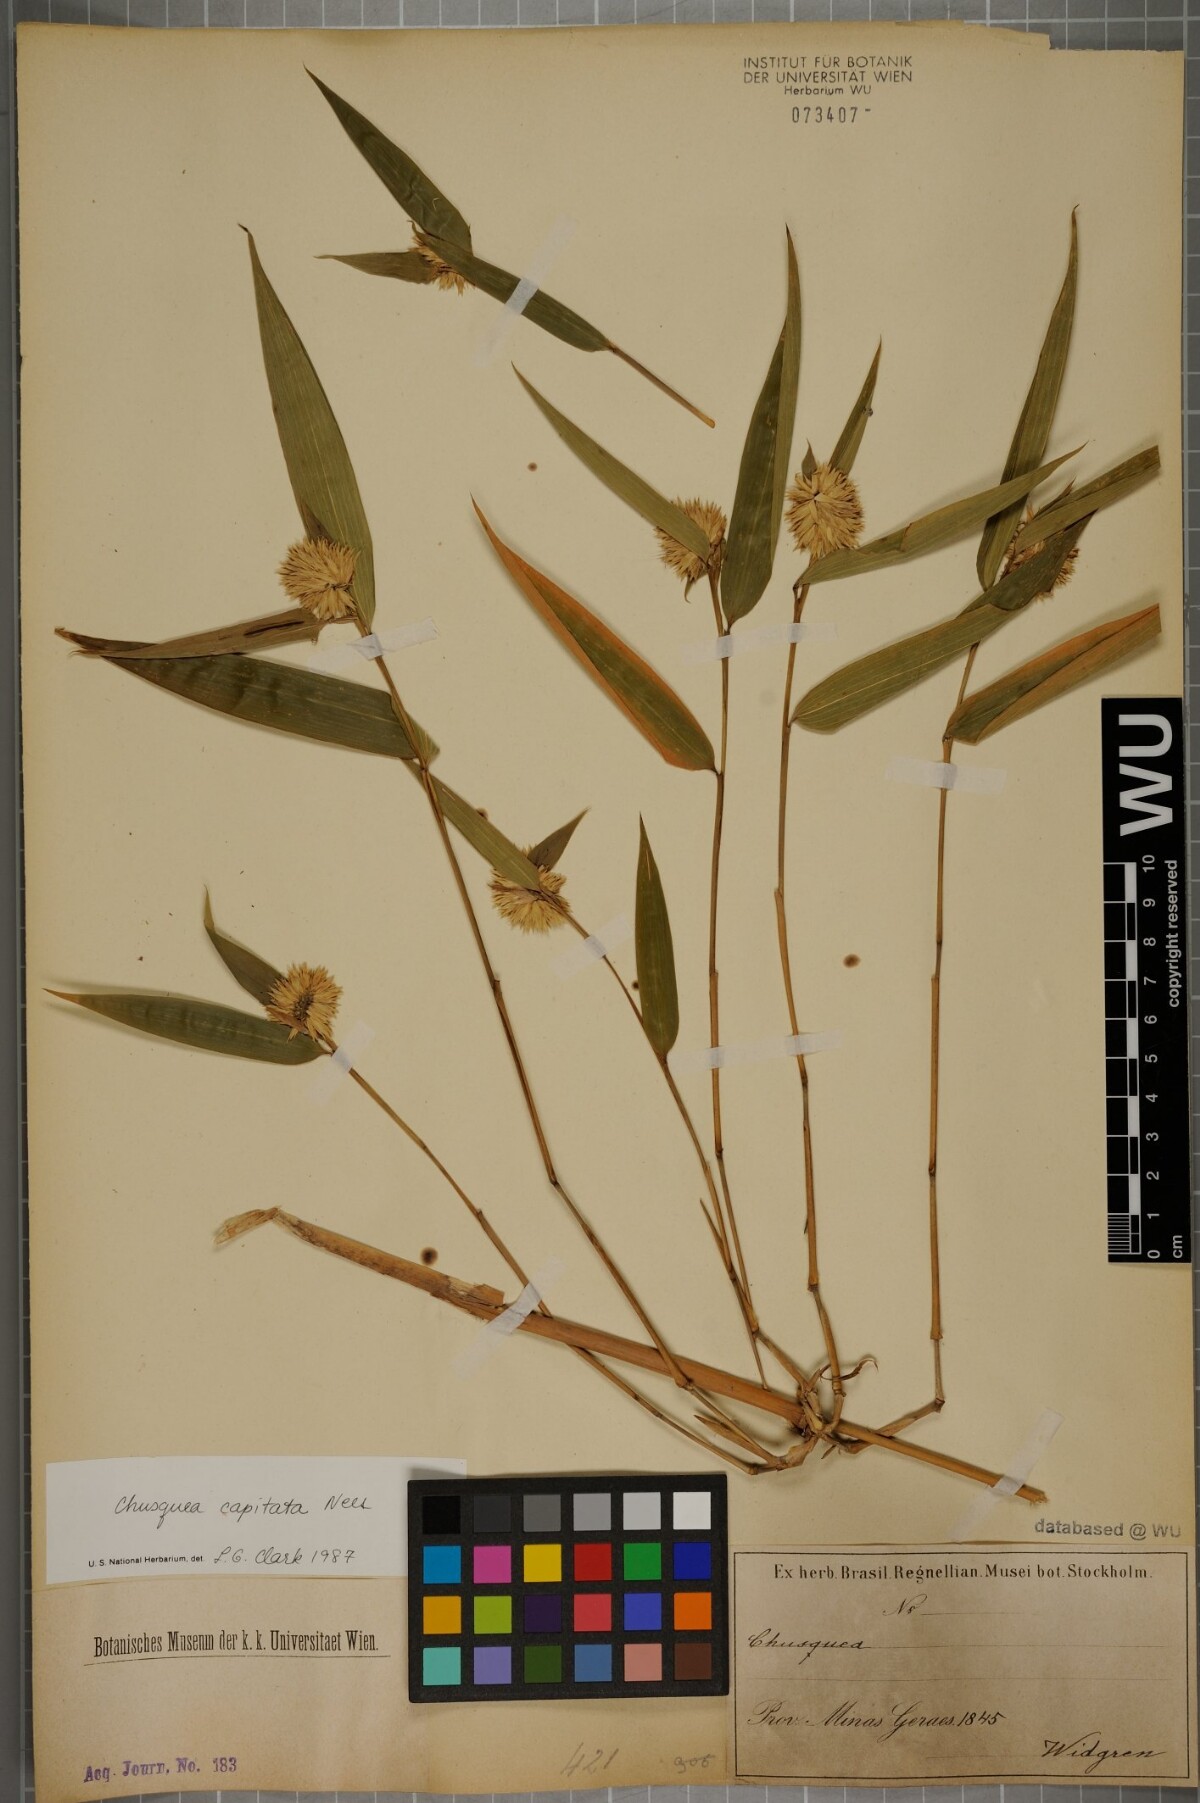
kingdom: Plantae
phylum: Tracheophyta
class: Liliopsida
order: Poales
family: Poaceae
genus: Chusquea
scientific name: Chusquea capitata
